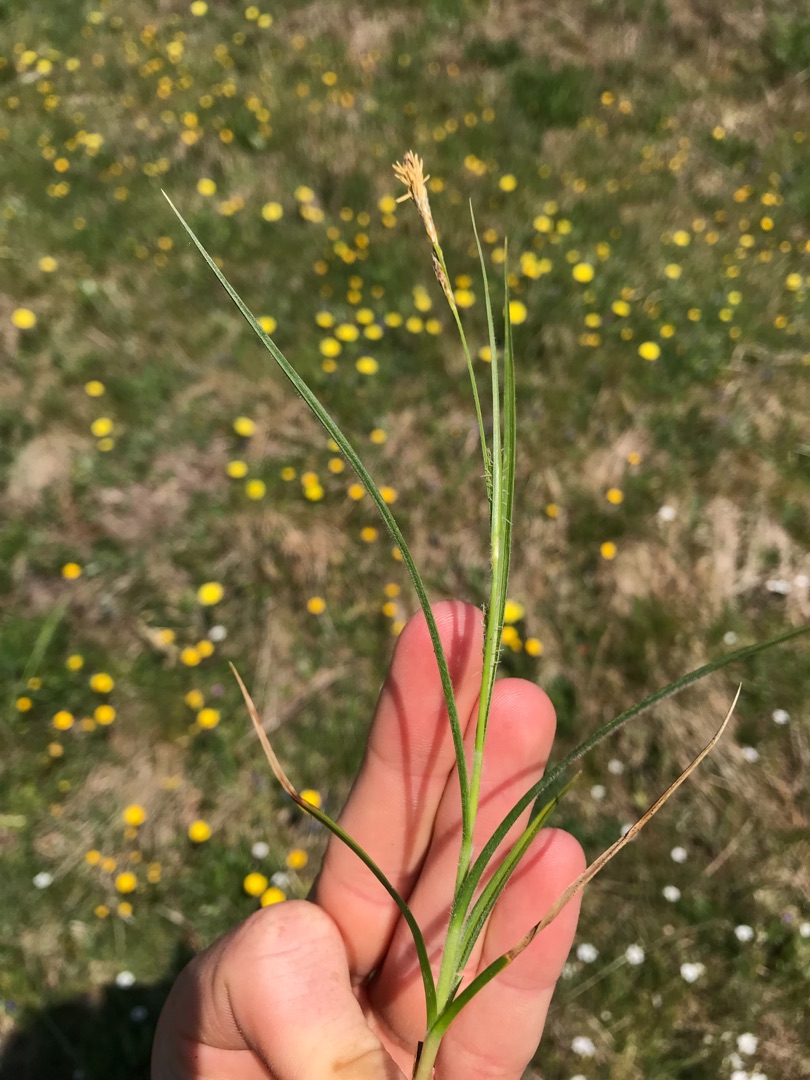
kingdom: Plantae
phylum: Tracheophyta
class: Liliopsida
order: Poales
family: Cyperaceae
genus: Carex
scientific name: Carex hirta
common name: Håret star
